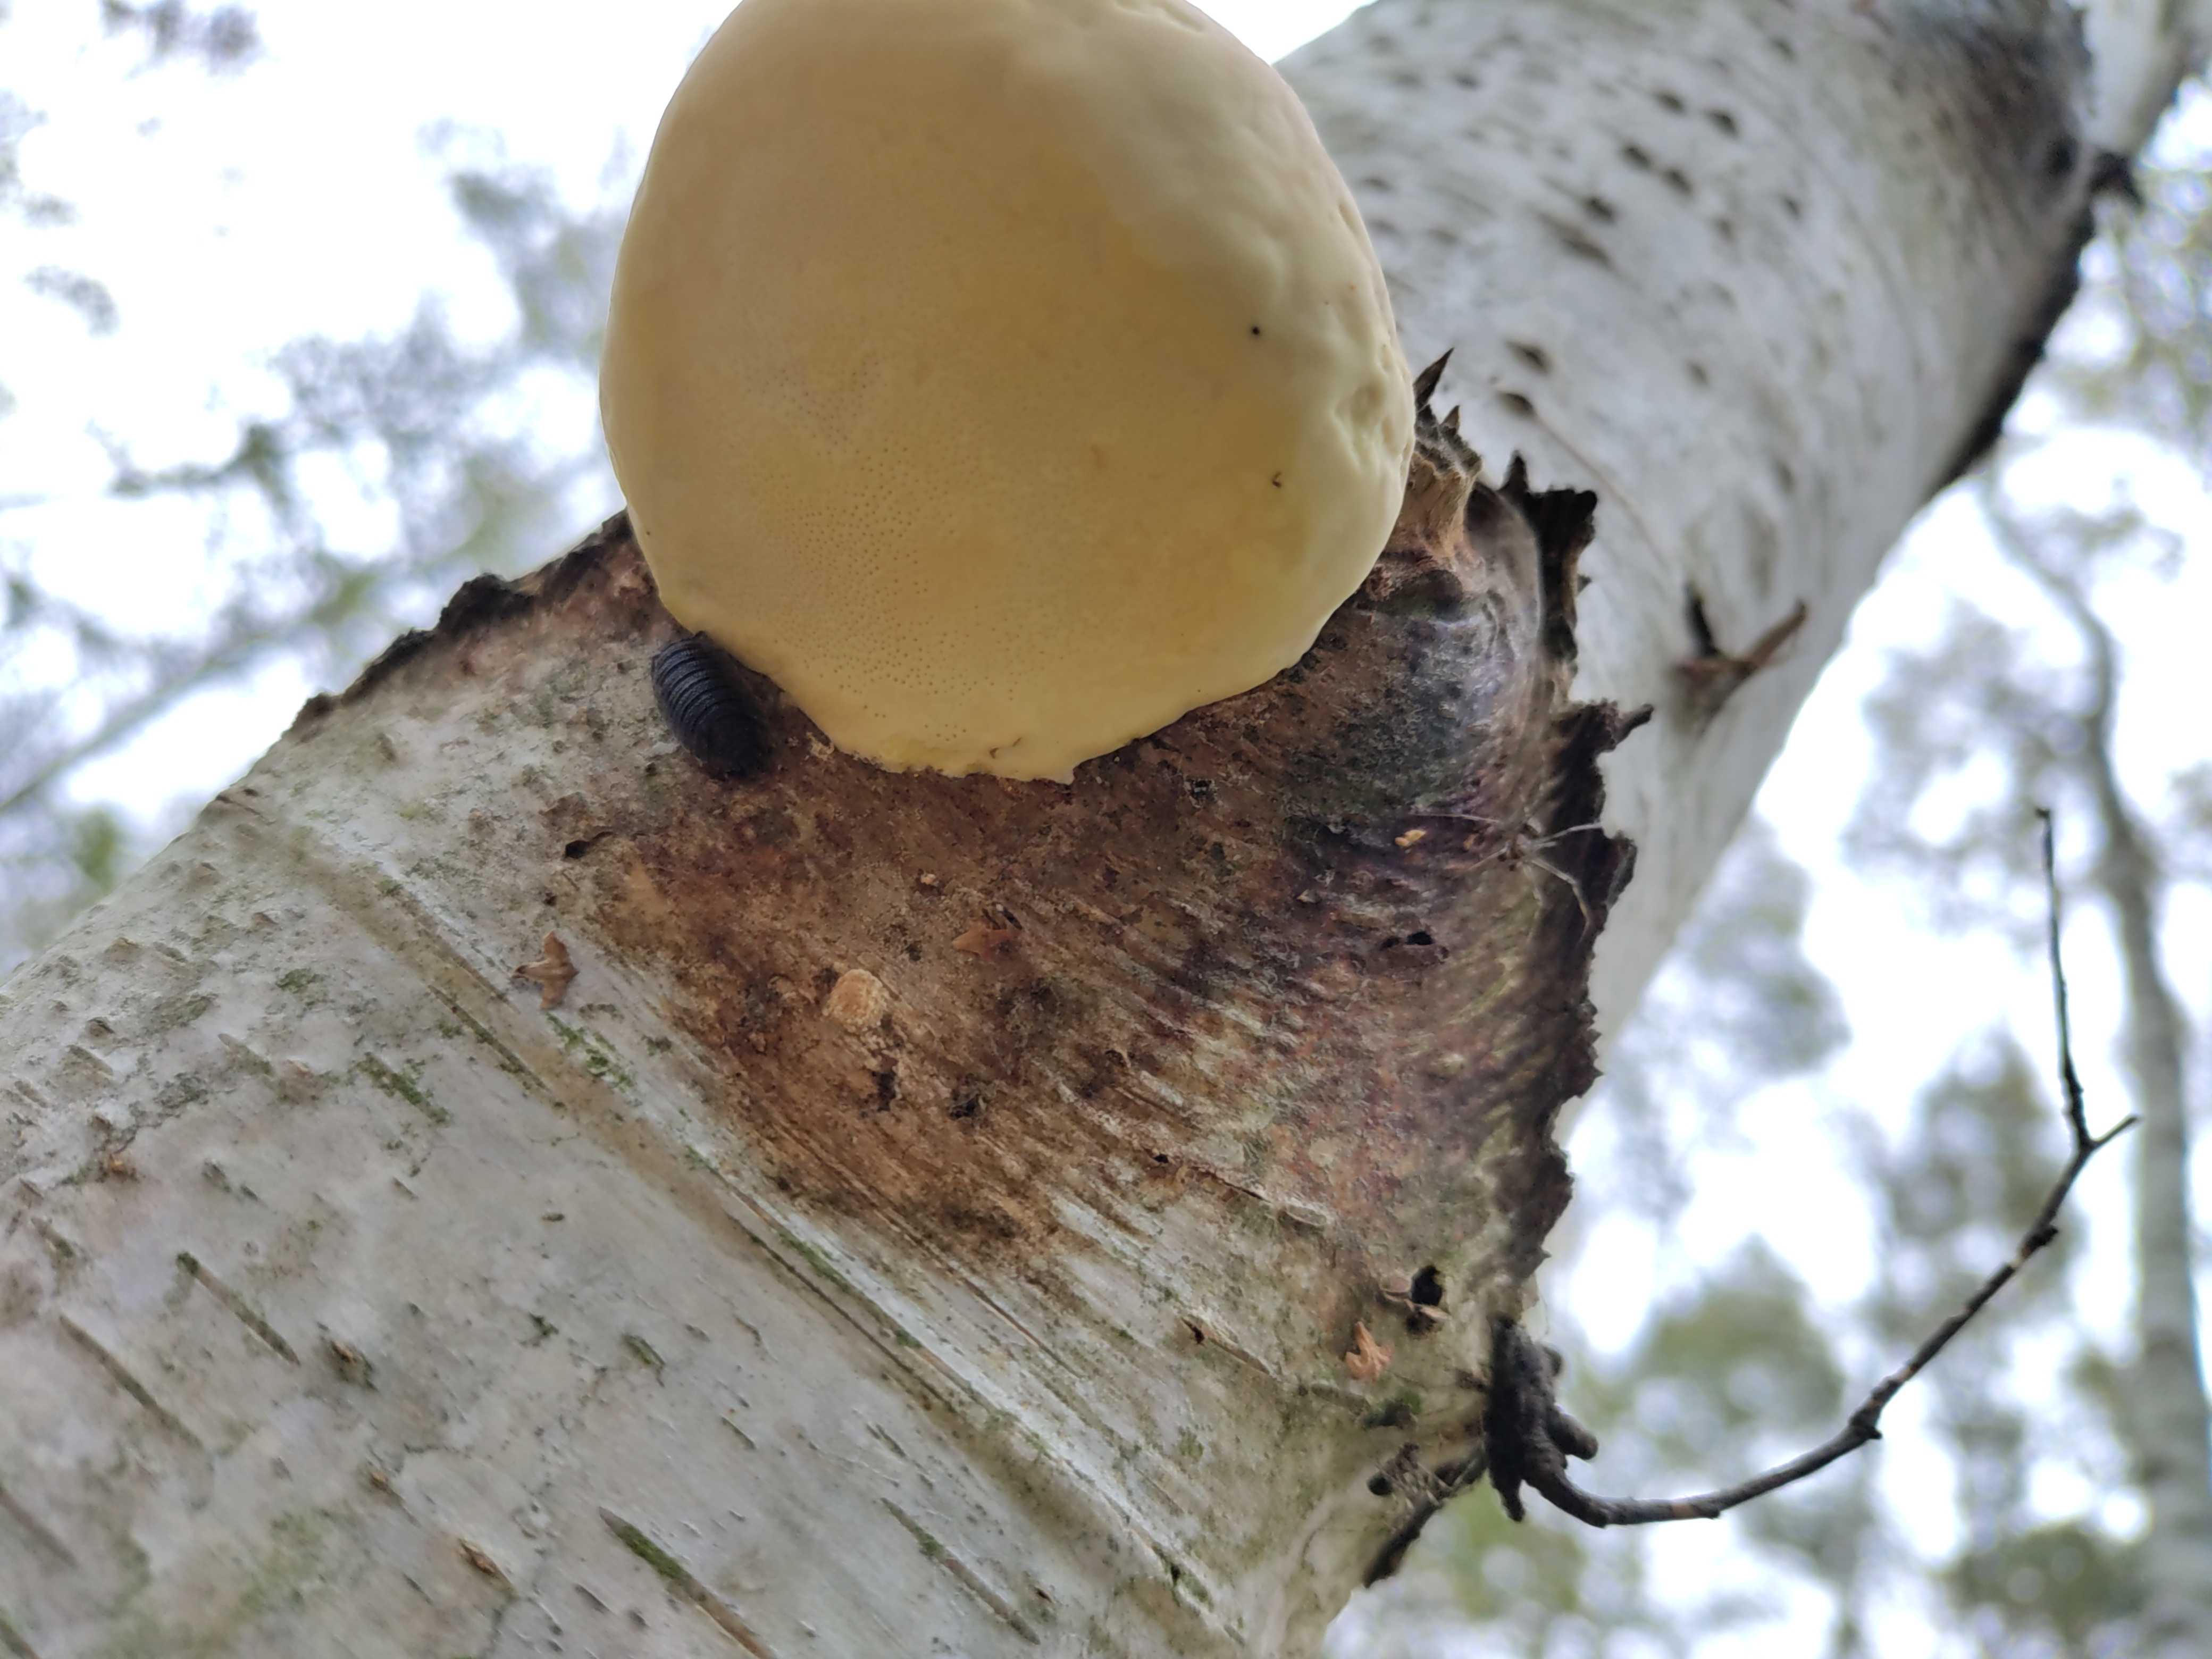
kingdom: Fungi
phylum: Basidiomycota
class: Agaricomycetes
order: Polyporales
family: Fomitopsidaceae
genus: Fomitopsis
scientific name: Fomitopsis betulina
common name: birkeporesvamp
